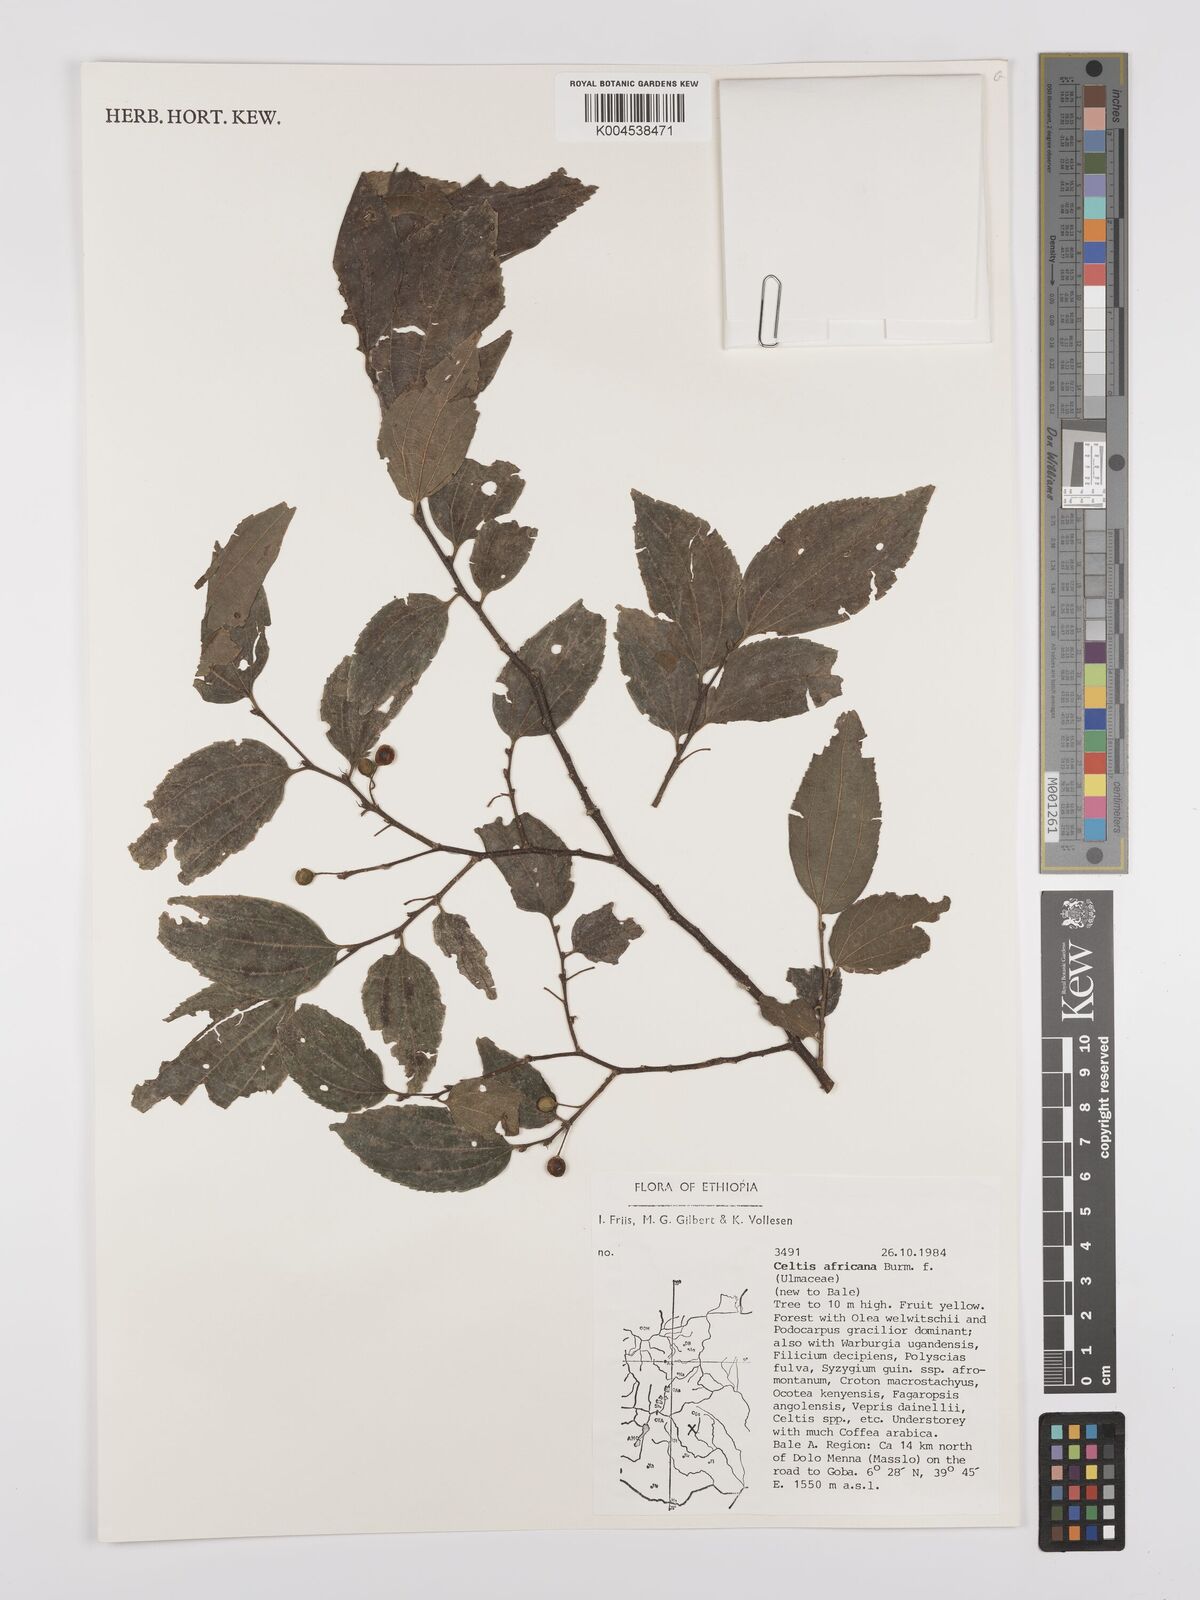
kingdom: Plantae
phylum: Tracheophyta
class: Magnoliopsida
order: Rosales
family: Cannabaceae
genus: Celtis
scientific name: Celtis africana
